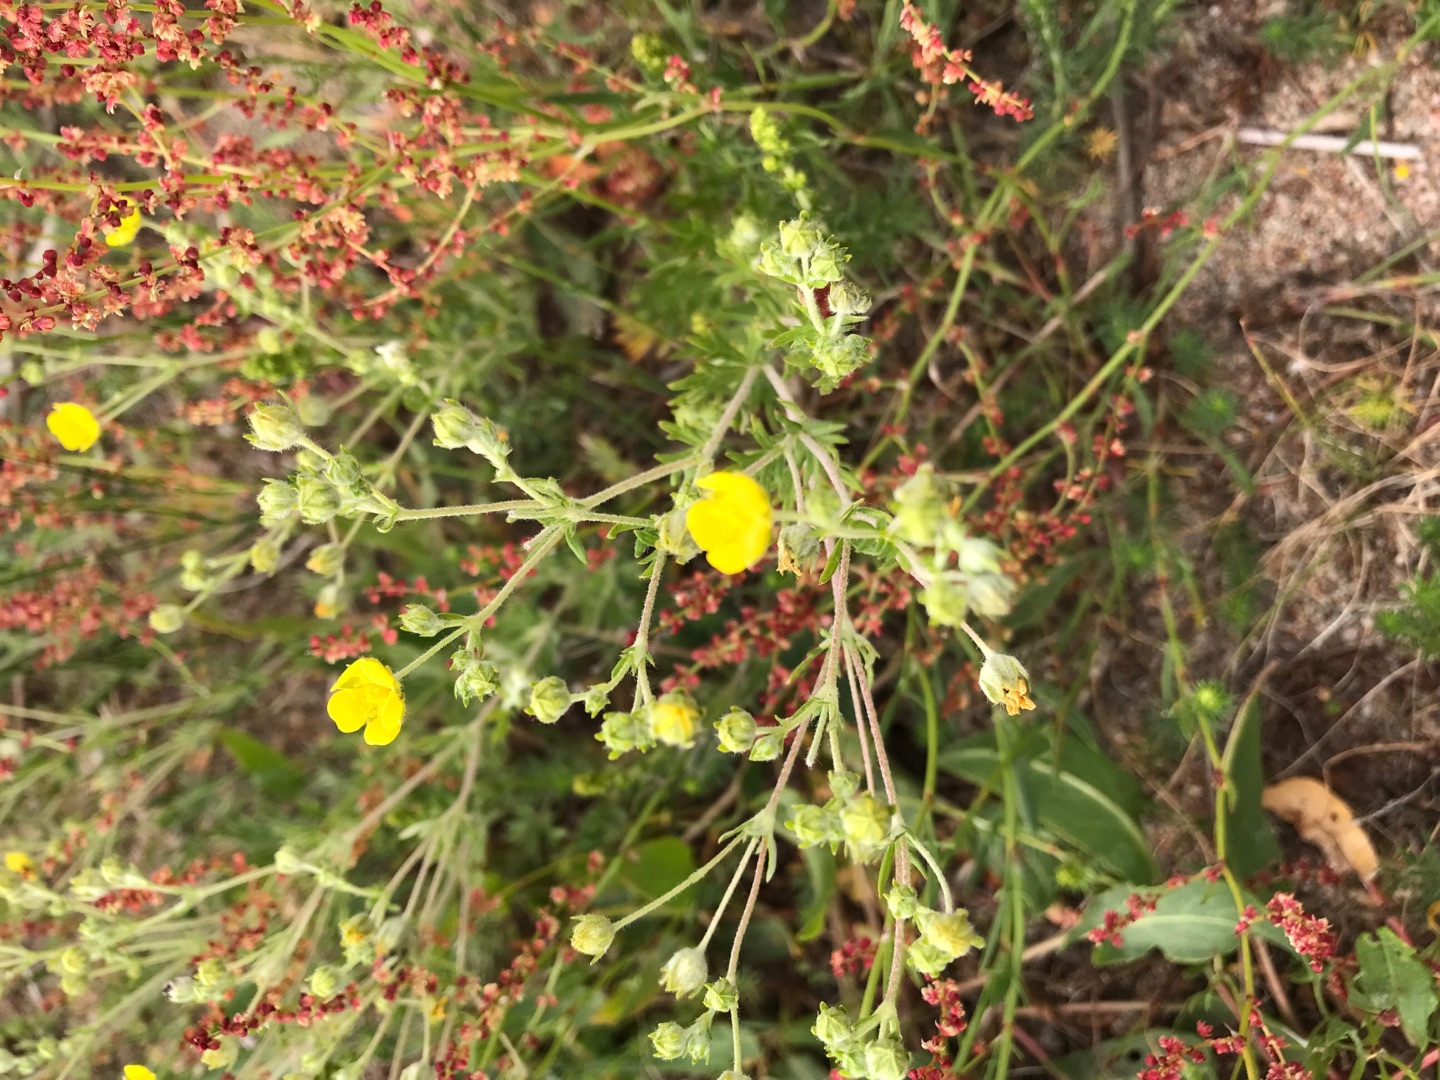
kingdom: Plantae
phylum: Tracheophyta
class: Magnoliopsida
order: Rosales
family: Rosaceae
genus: Potentilla
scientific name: Potentilla argentea
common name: Sølv-potentil
